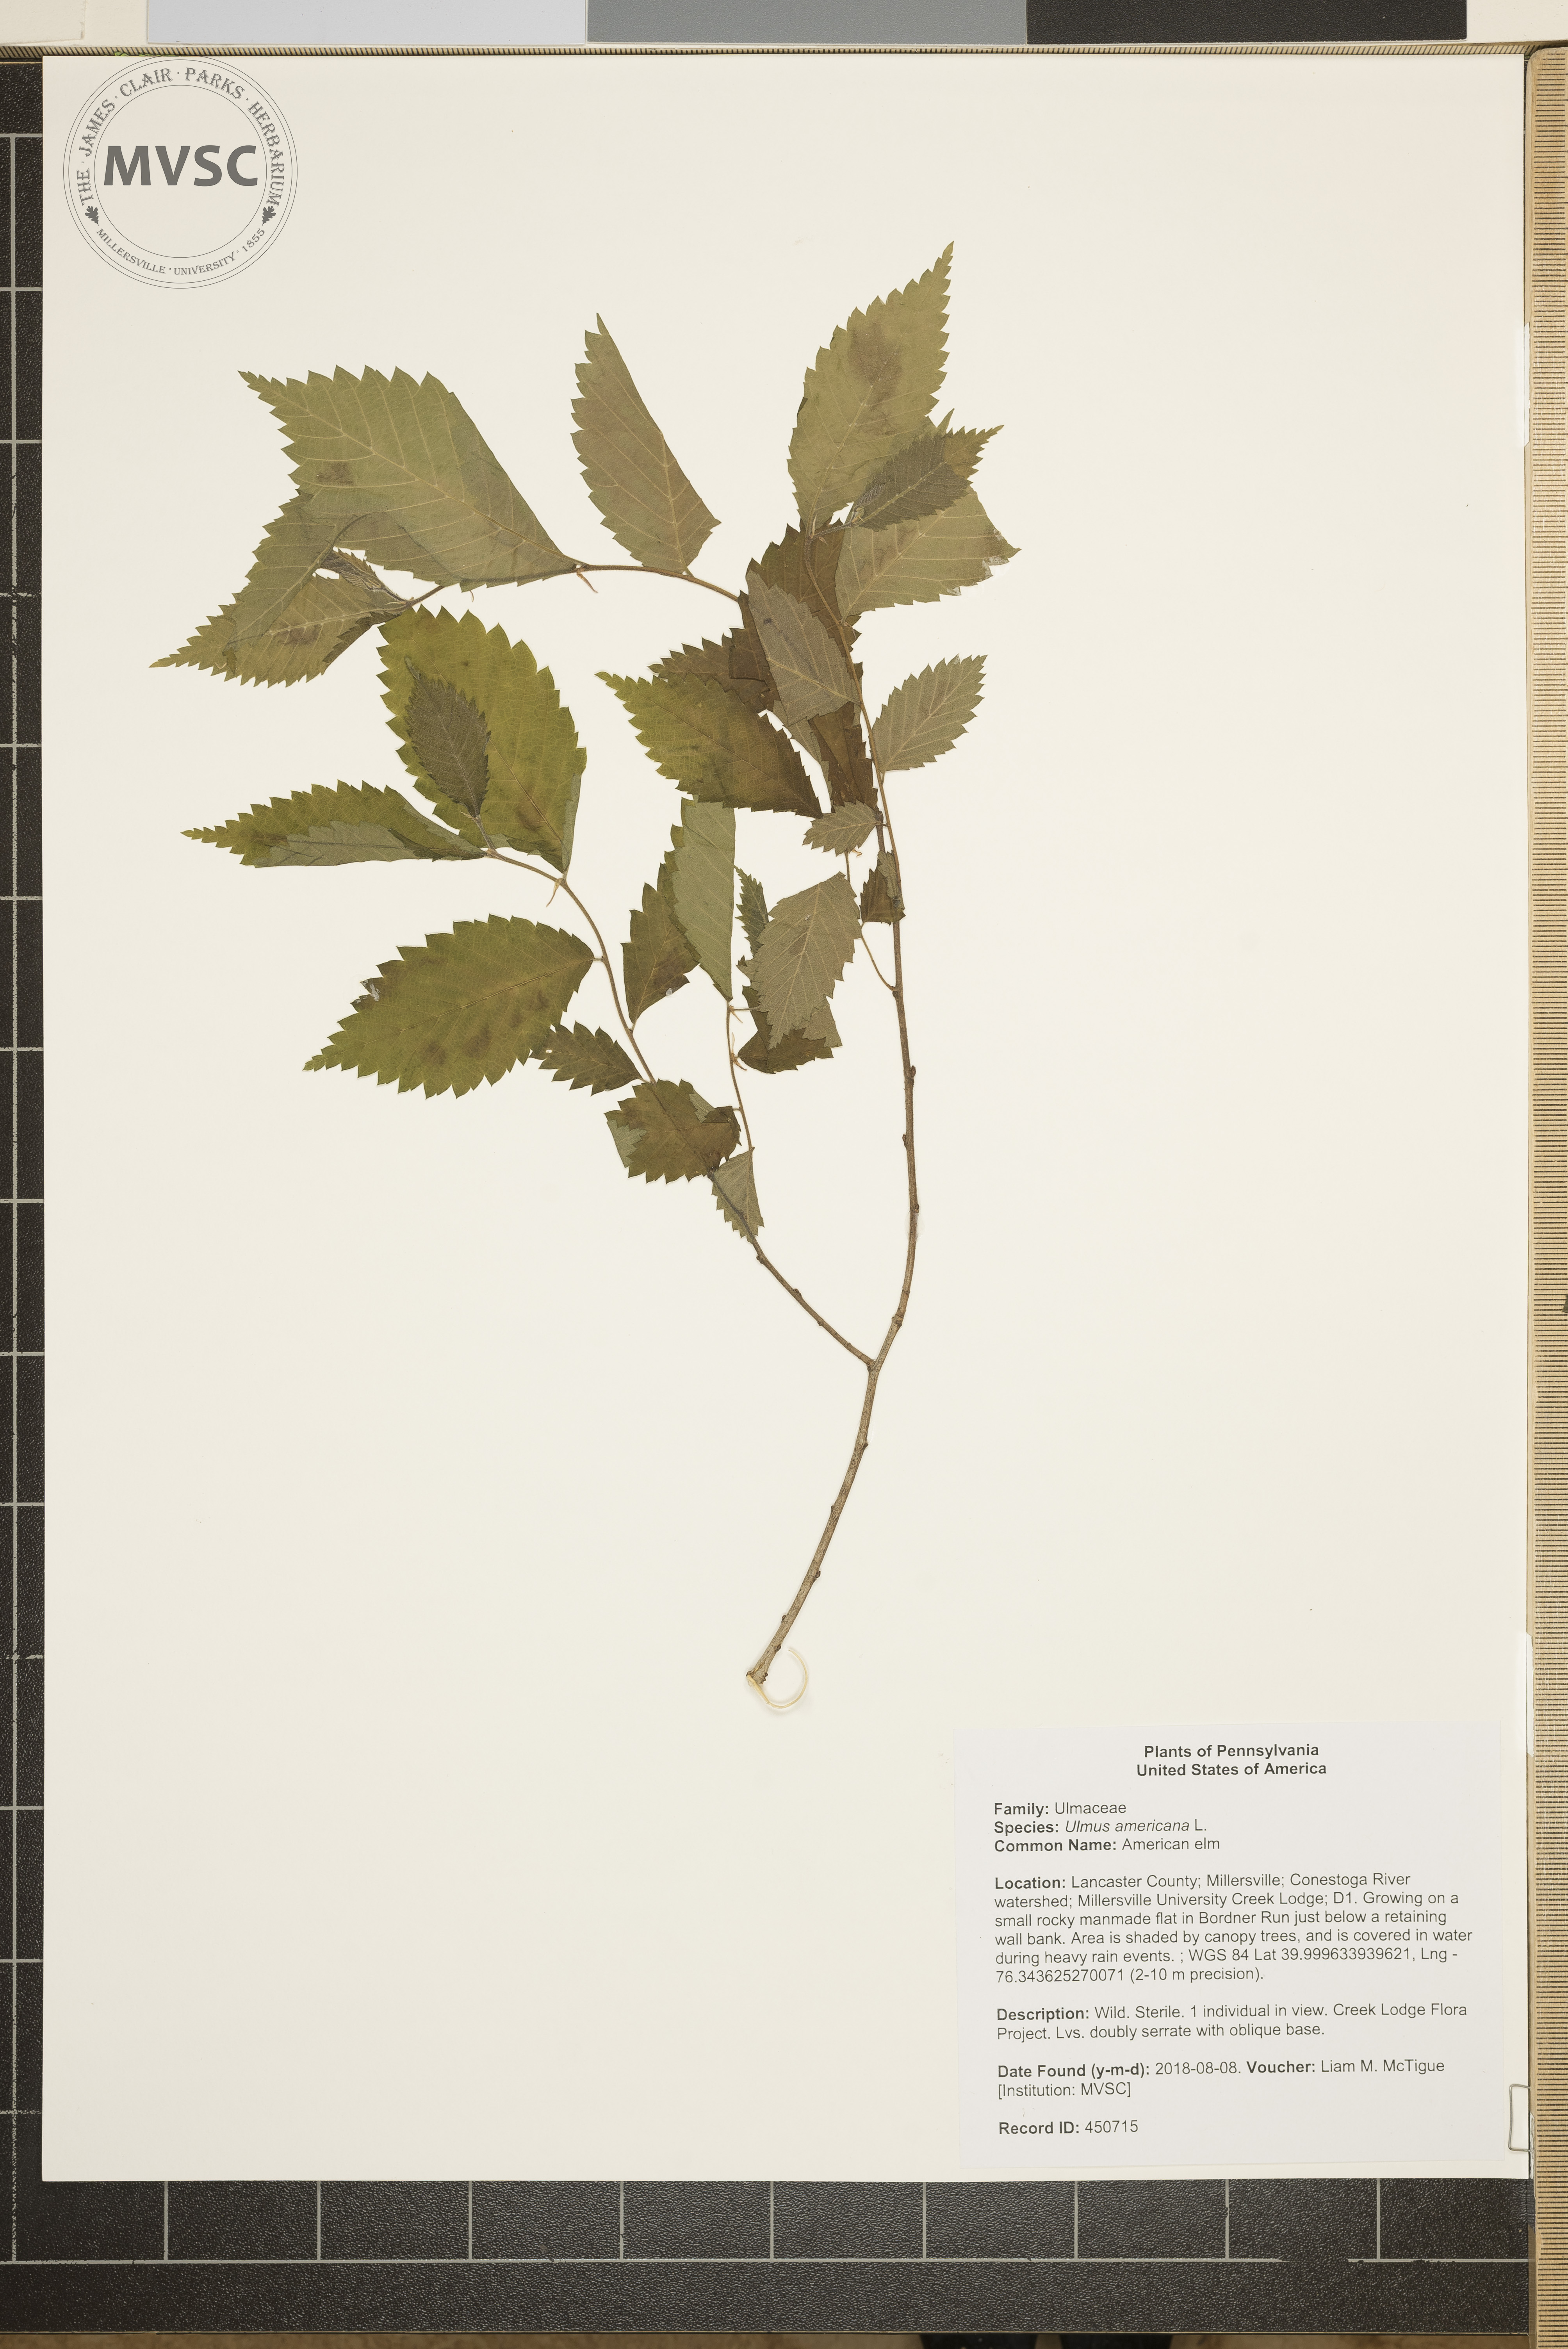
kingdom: Plantae
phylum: Tracheophyta
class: Magnoliopsida
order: Rosales
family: Ulmaceae
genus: Ulmus
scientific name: Ulmus americana
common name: American elm
